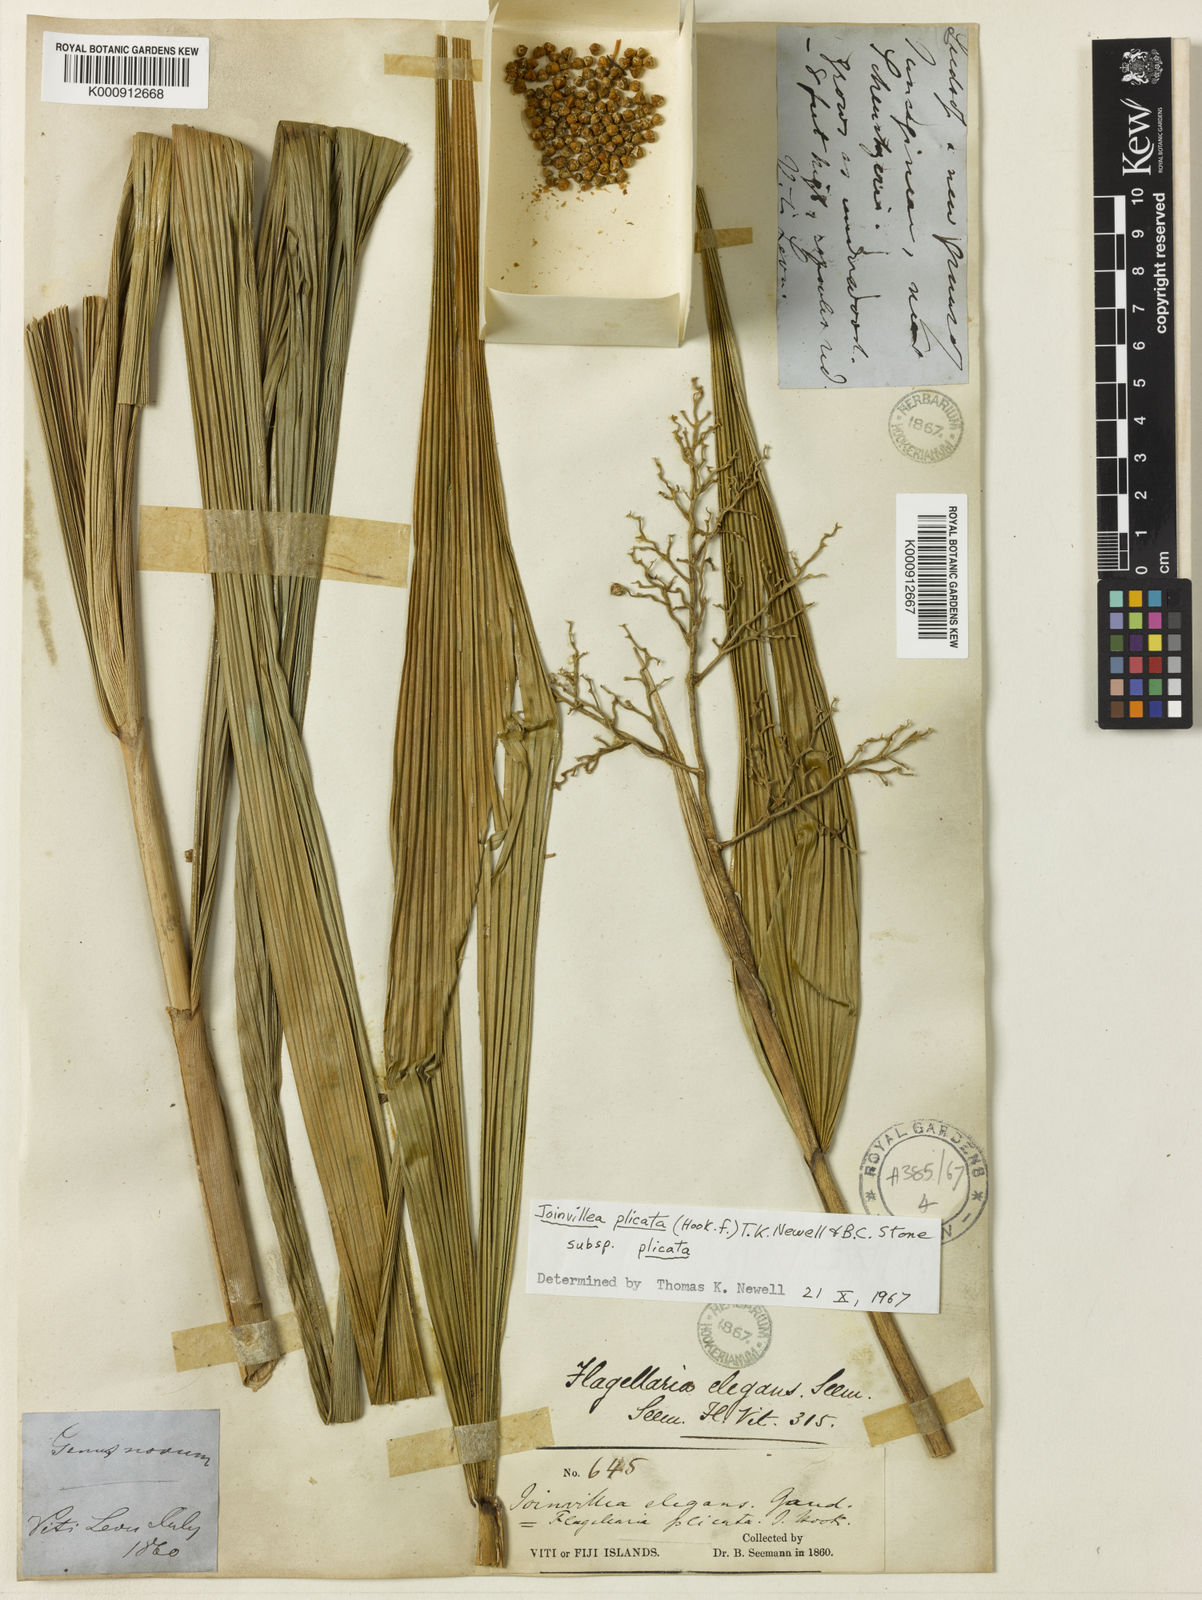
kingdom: Plantae
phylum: Tracheophyta
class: Liliopsida
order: Poales
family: Joinvilleaceae
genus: Joinvillea
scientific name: Joinvillea plicata
